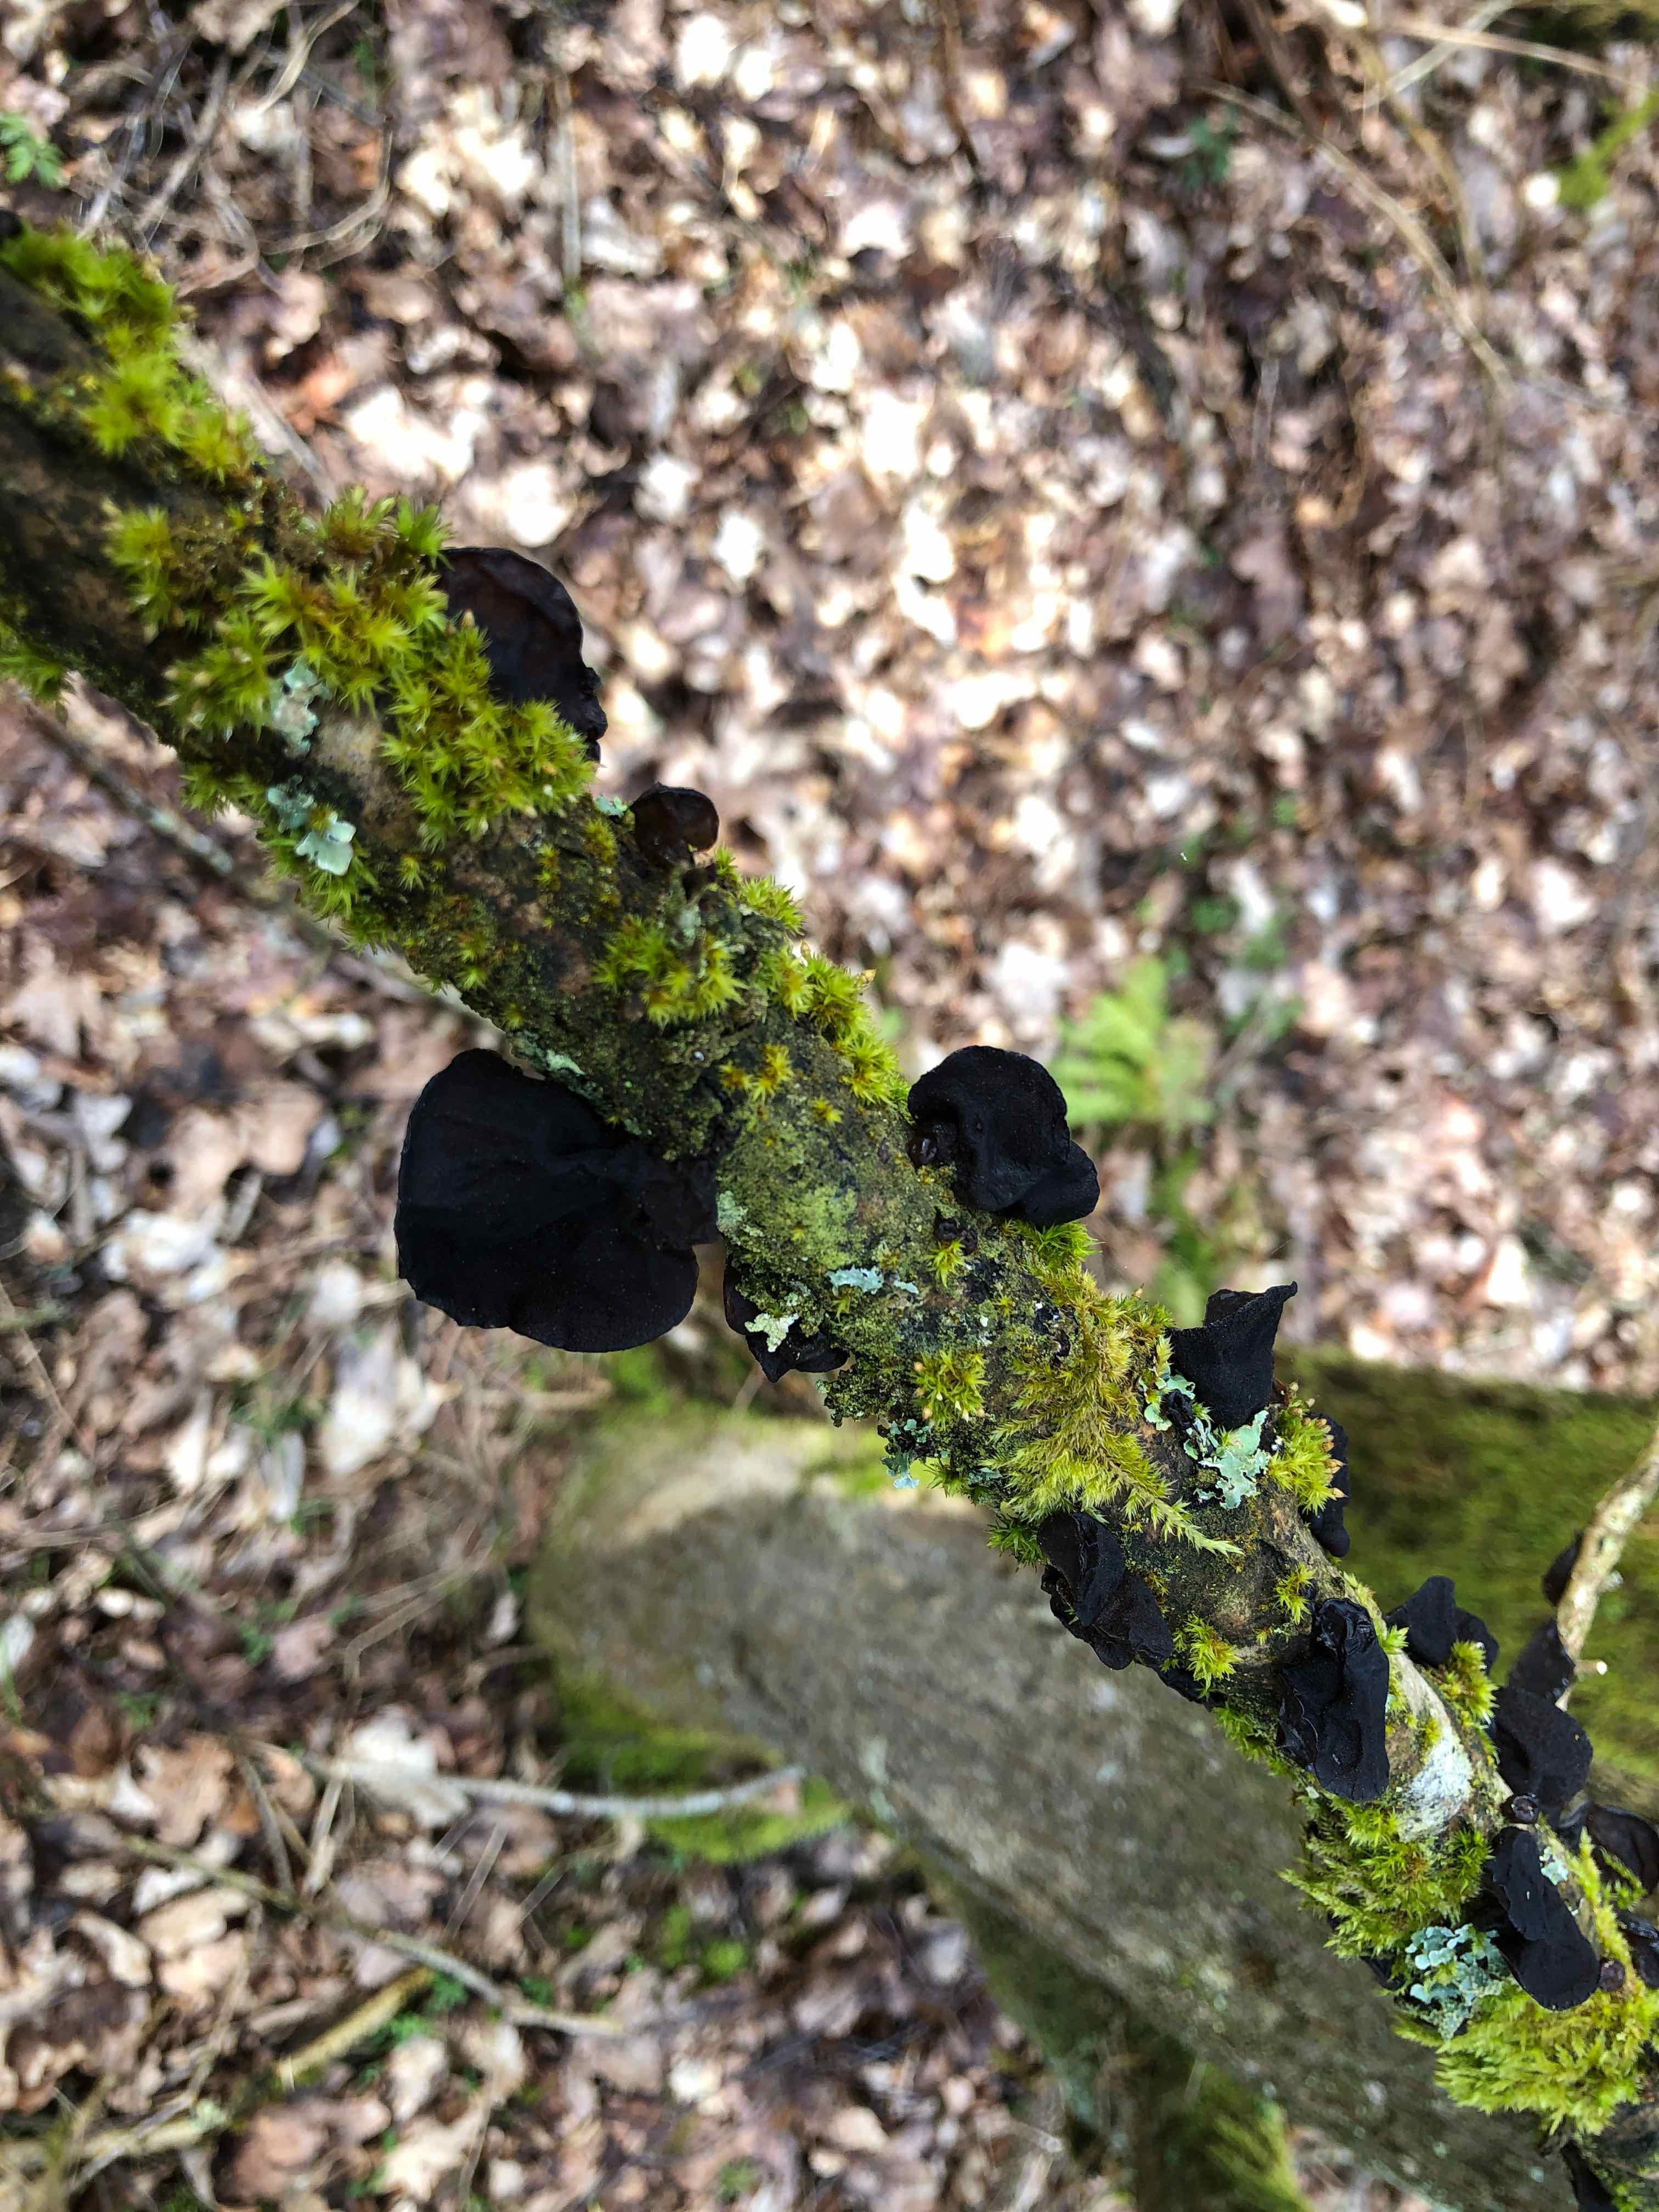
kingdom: Fungi
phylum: Basidiomycota
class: Agaricomycetes
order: Auriculariales
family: Auriculariaceae
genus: Exidia
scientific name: Exidia glandulosa
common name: ege-bævretop
